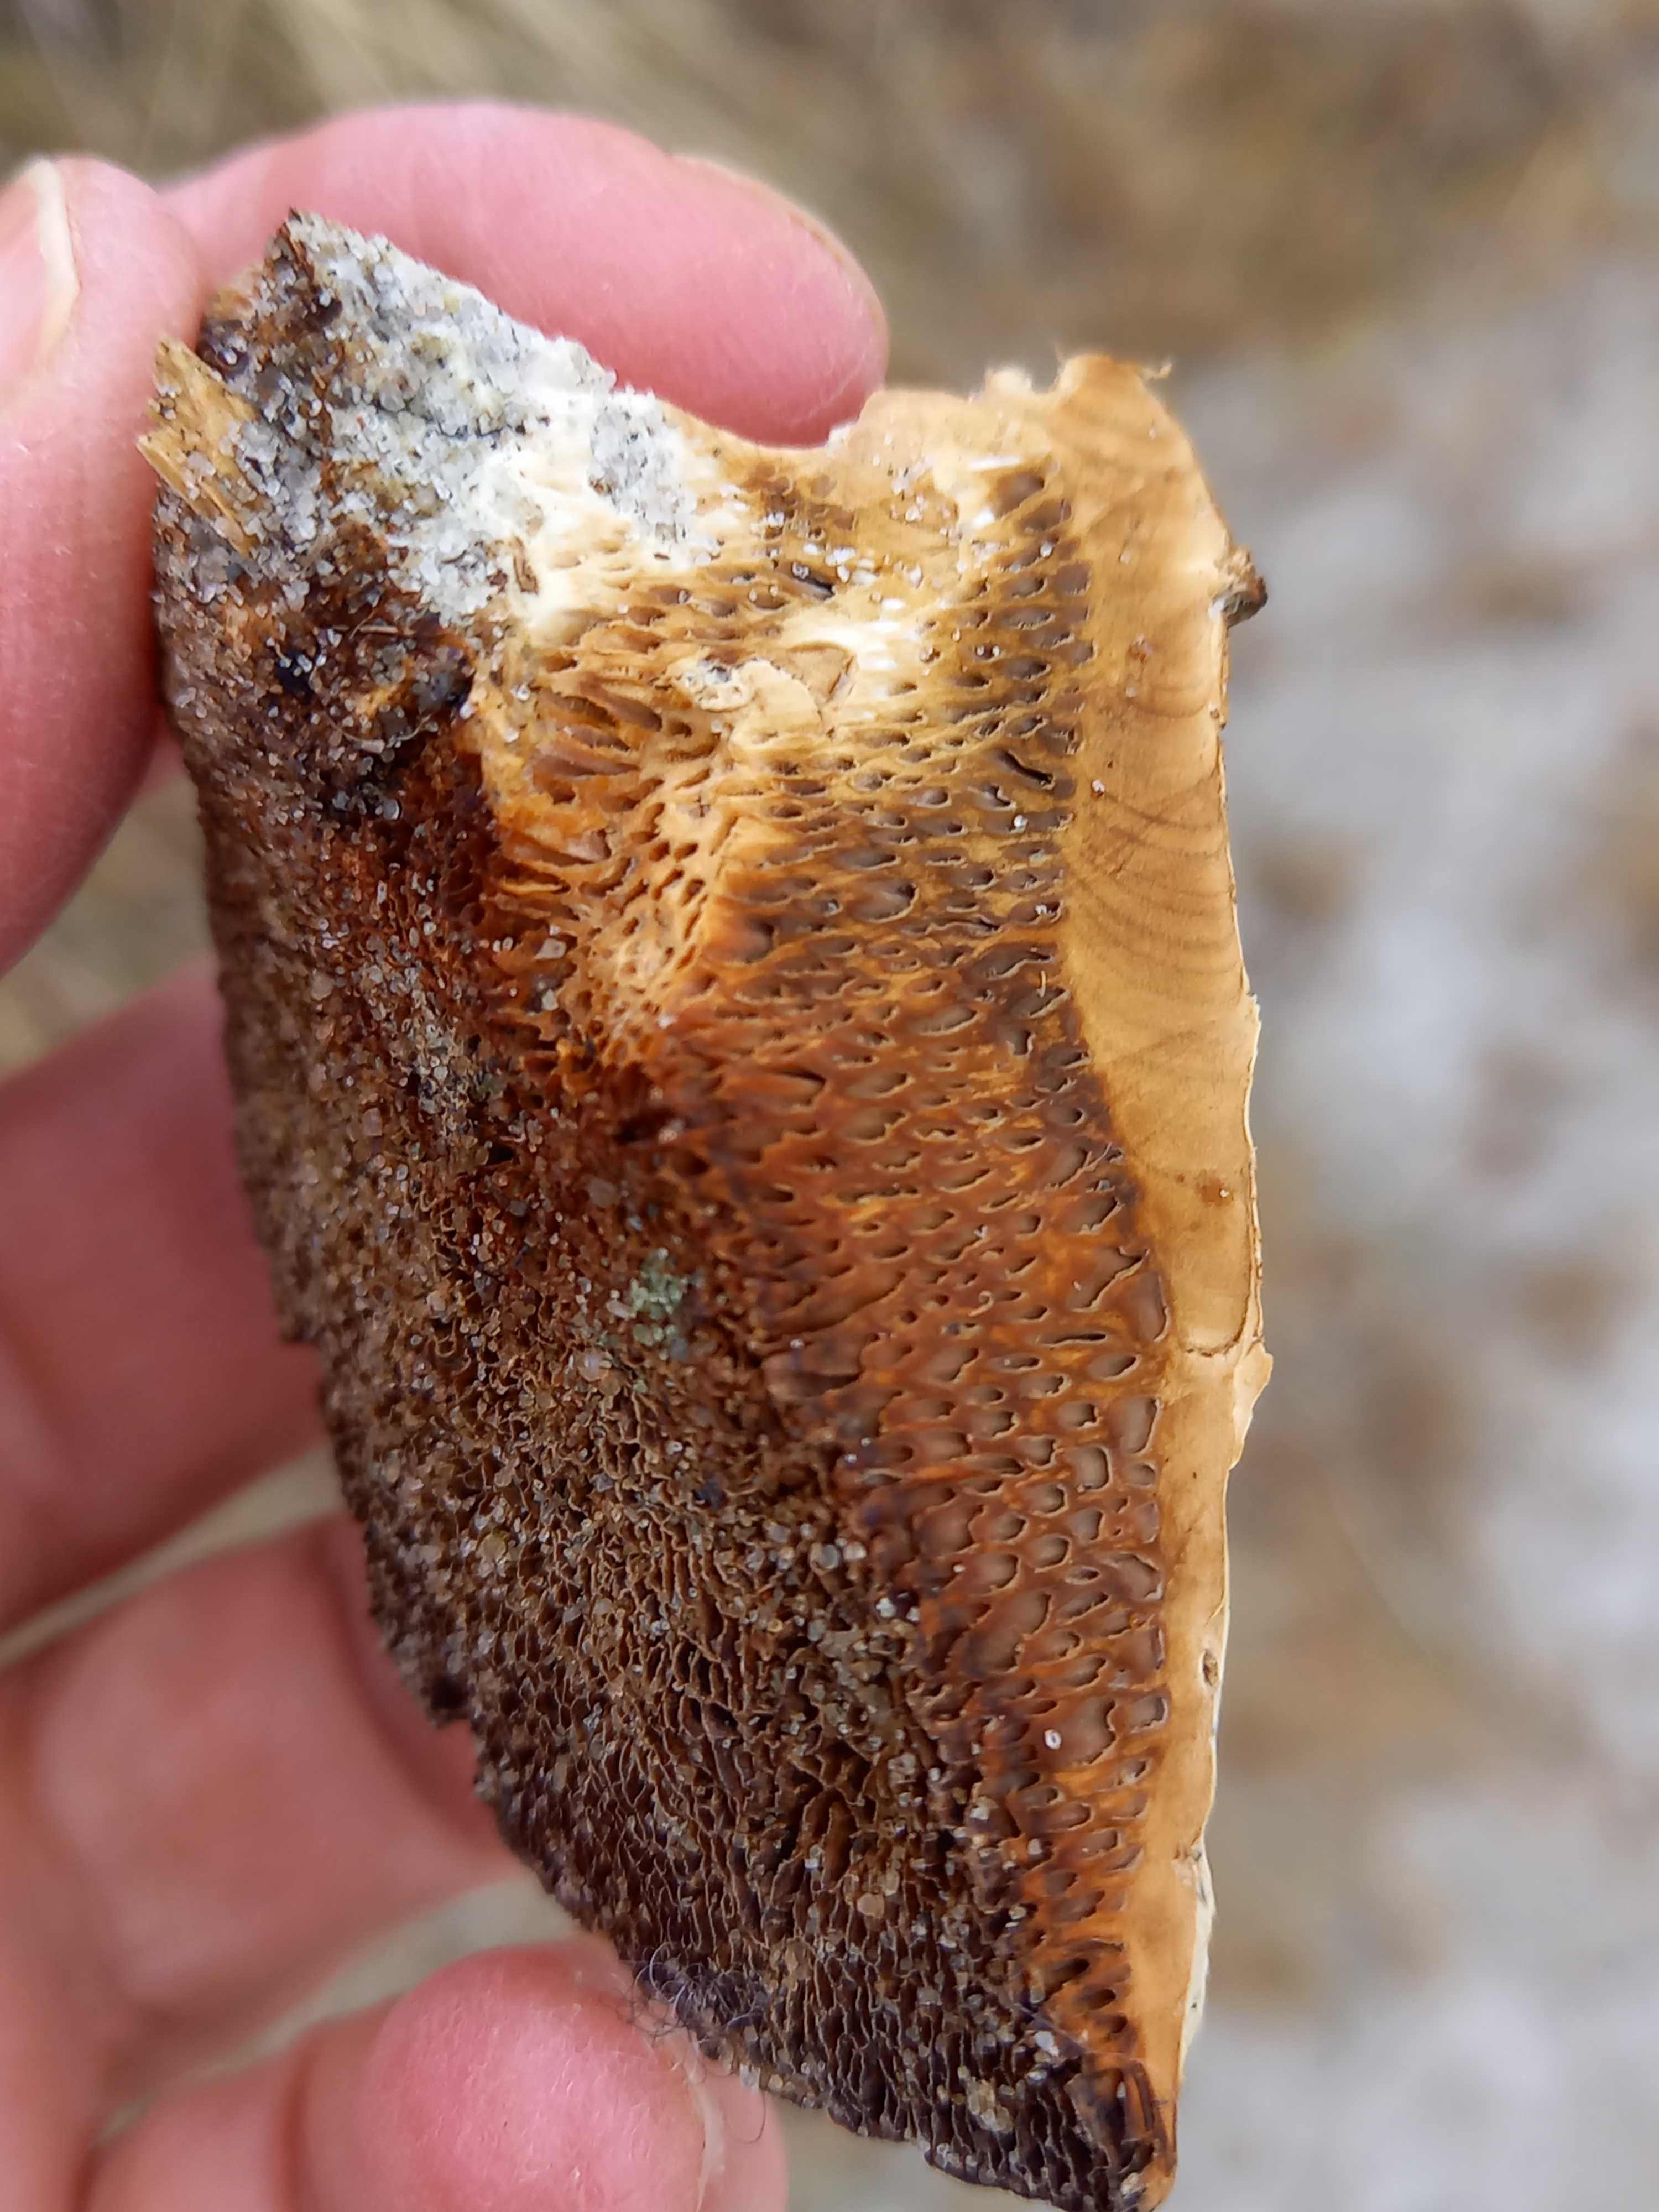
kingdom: Fungi
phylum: Basidiomycota
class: Agaricomycetes
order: Polyporales
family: Polyporaceae
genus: Daedaleopsis
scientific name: Daedaleopsis confragosa
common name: rødmende læderporesvamp
